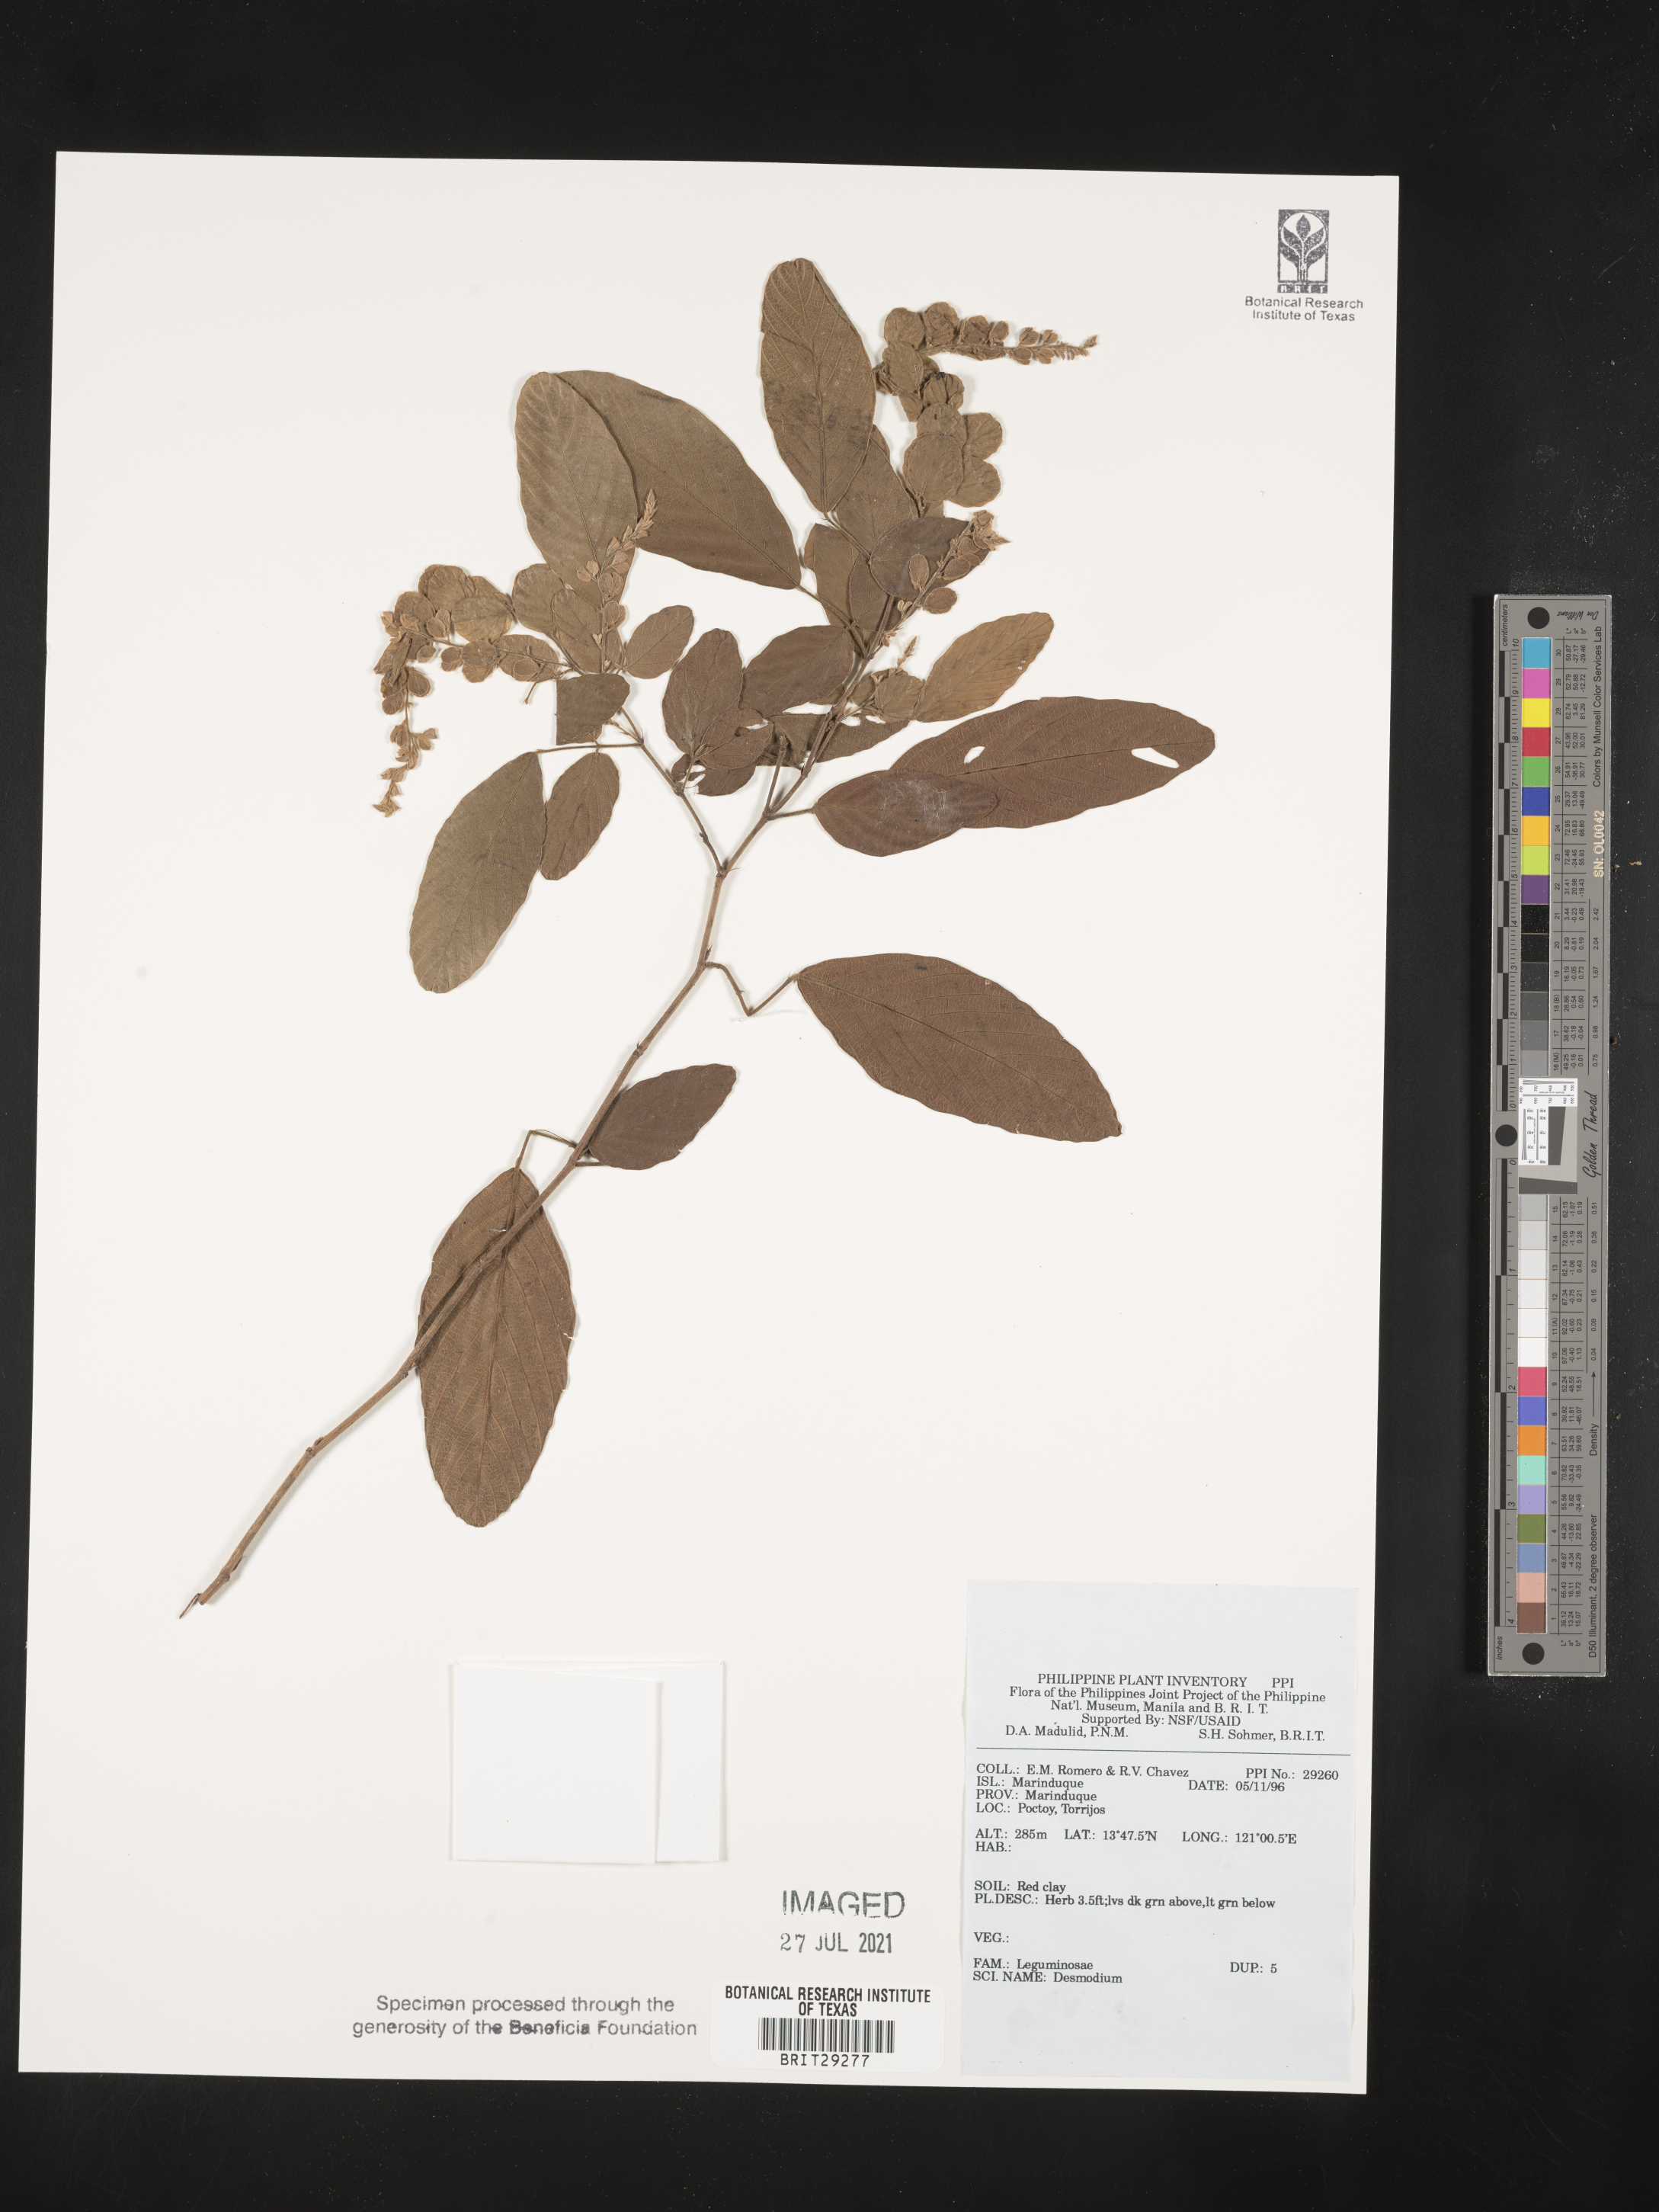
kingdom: Plantae
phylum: Tracheophyta
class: Magnoliopsida
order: Fabales
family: Fabaceae
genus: Desmodium
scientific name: Desmodium
